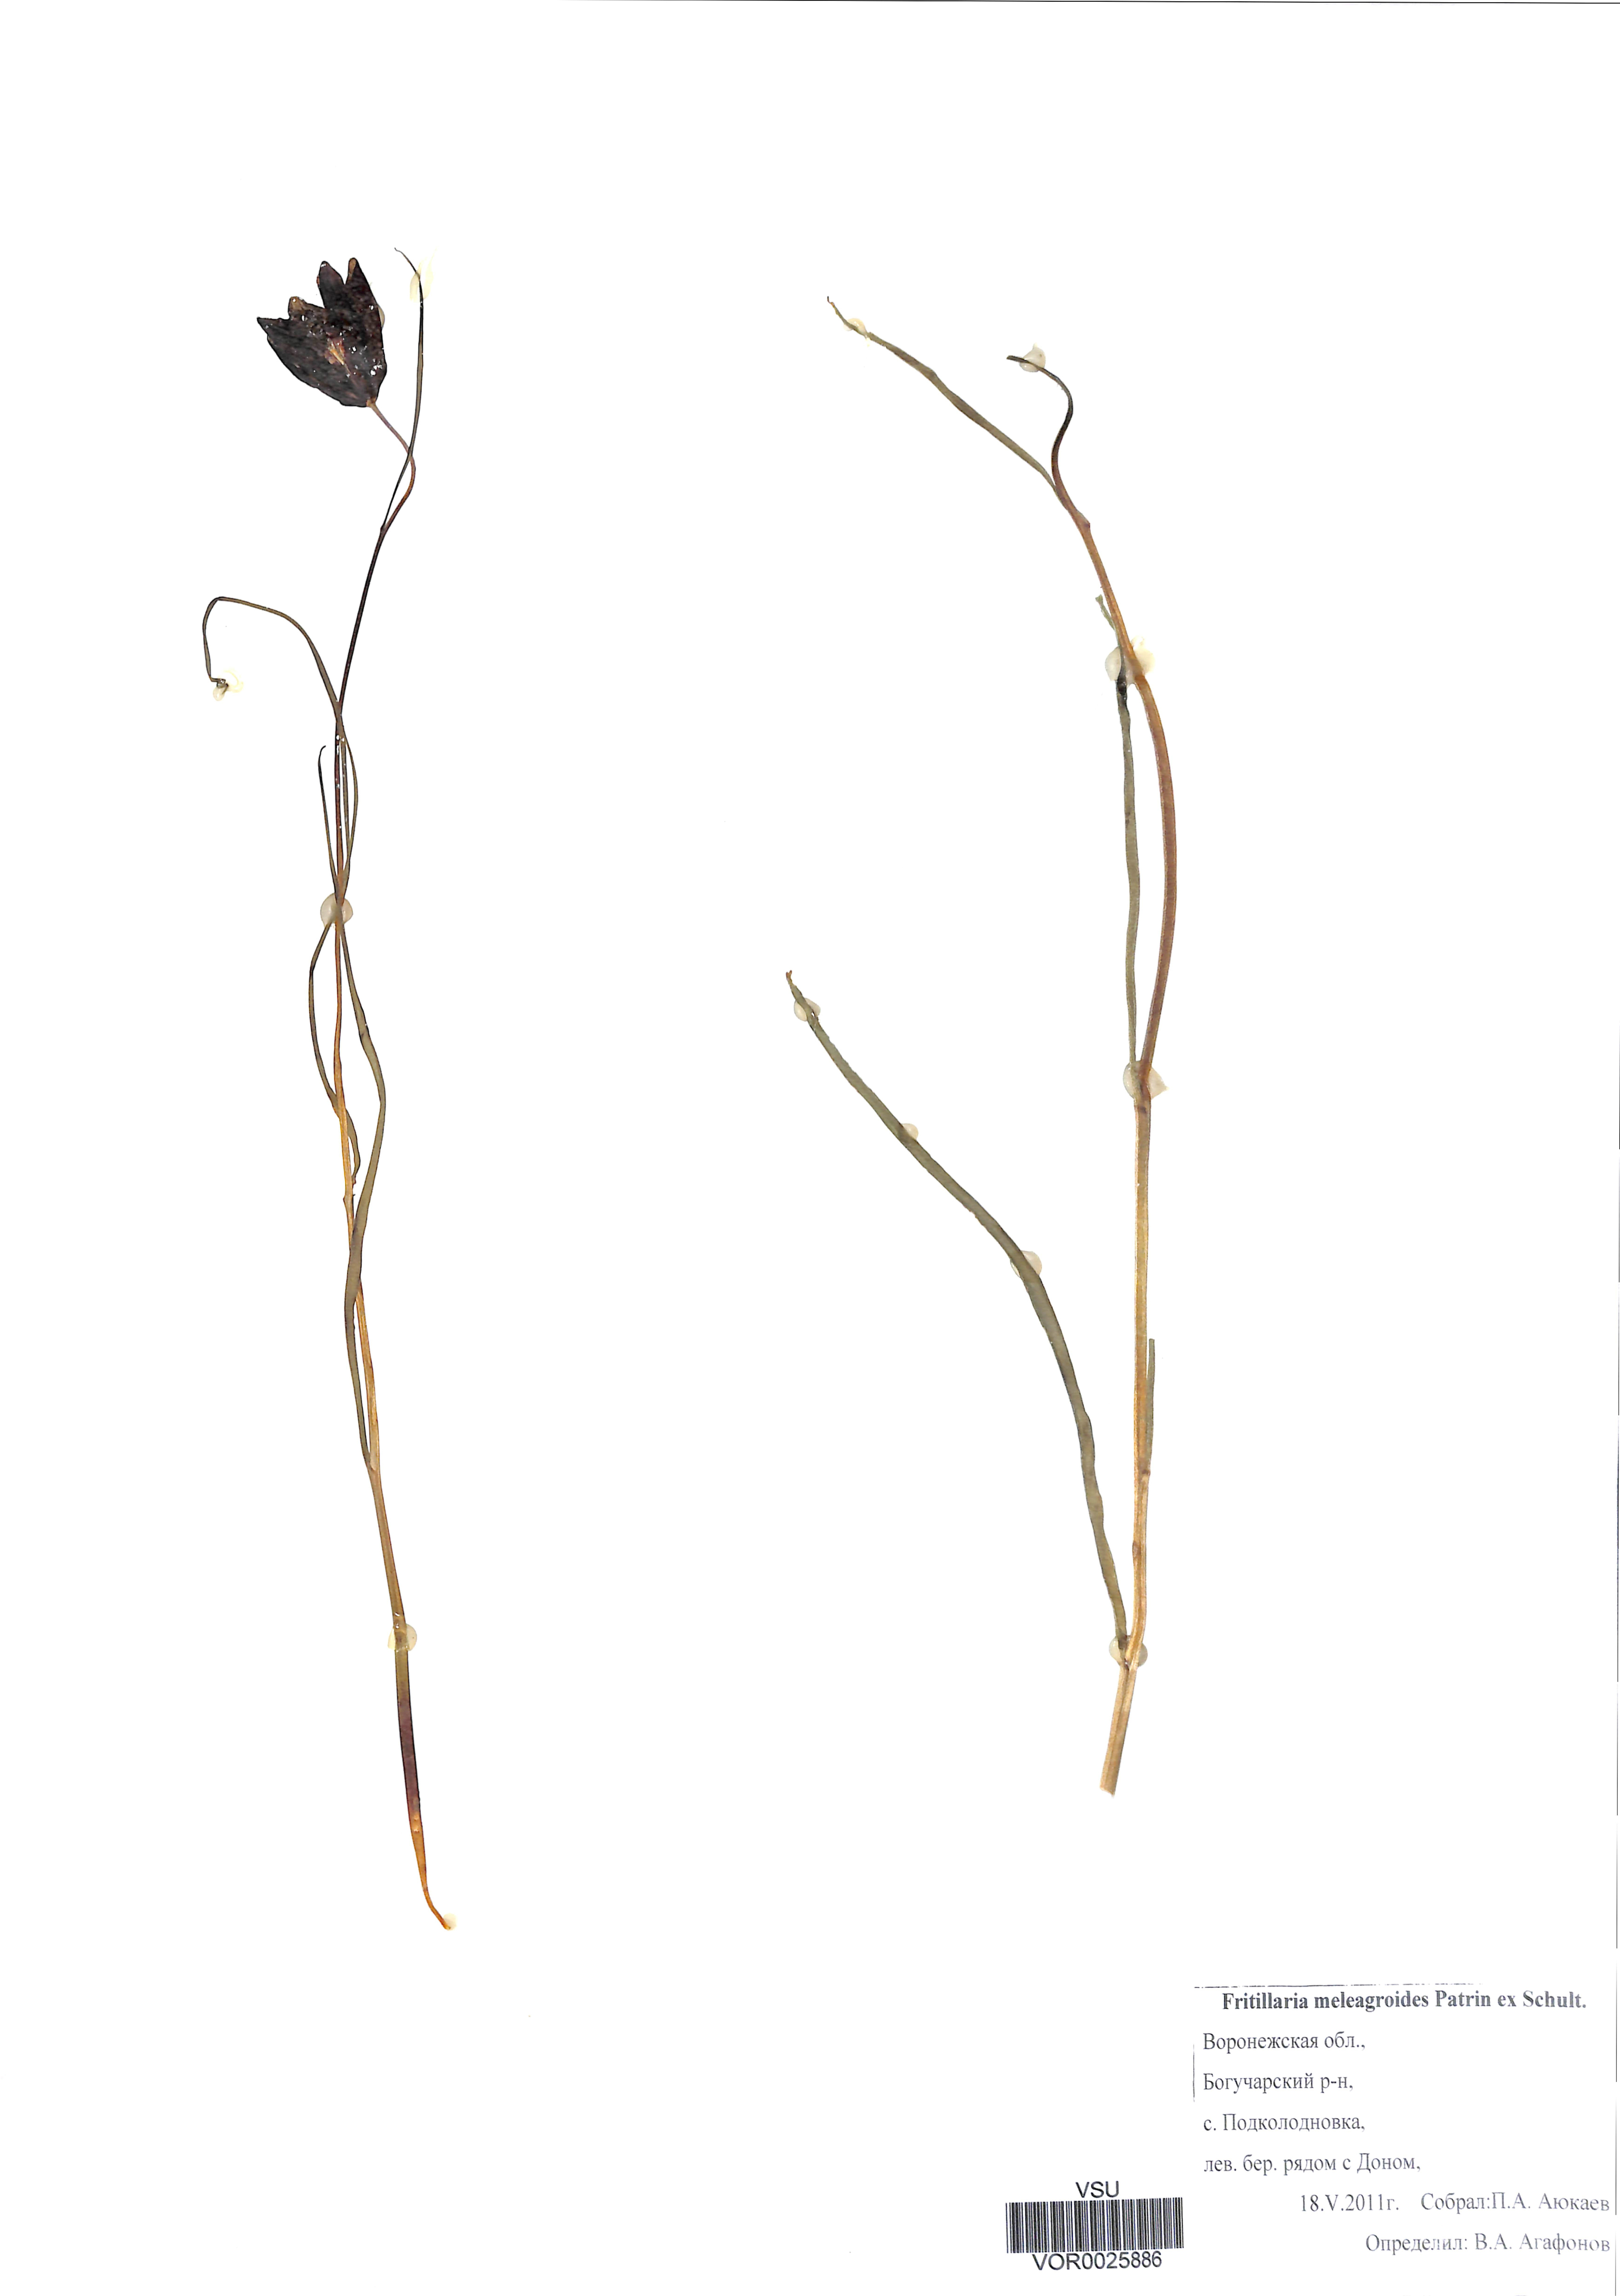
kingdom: Plantae
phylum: Tracheophyta
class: Liliopsida
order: Liliales
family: Liliaceae
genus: Fritillaria
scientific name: Fritillaria meleagroides
